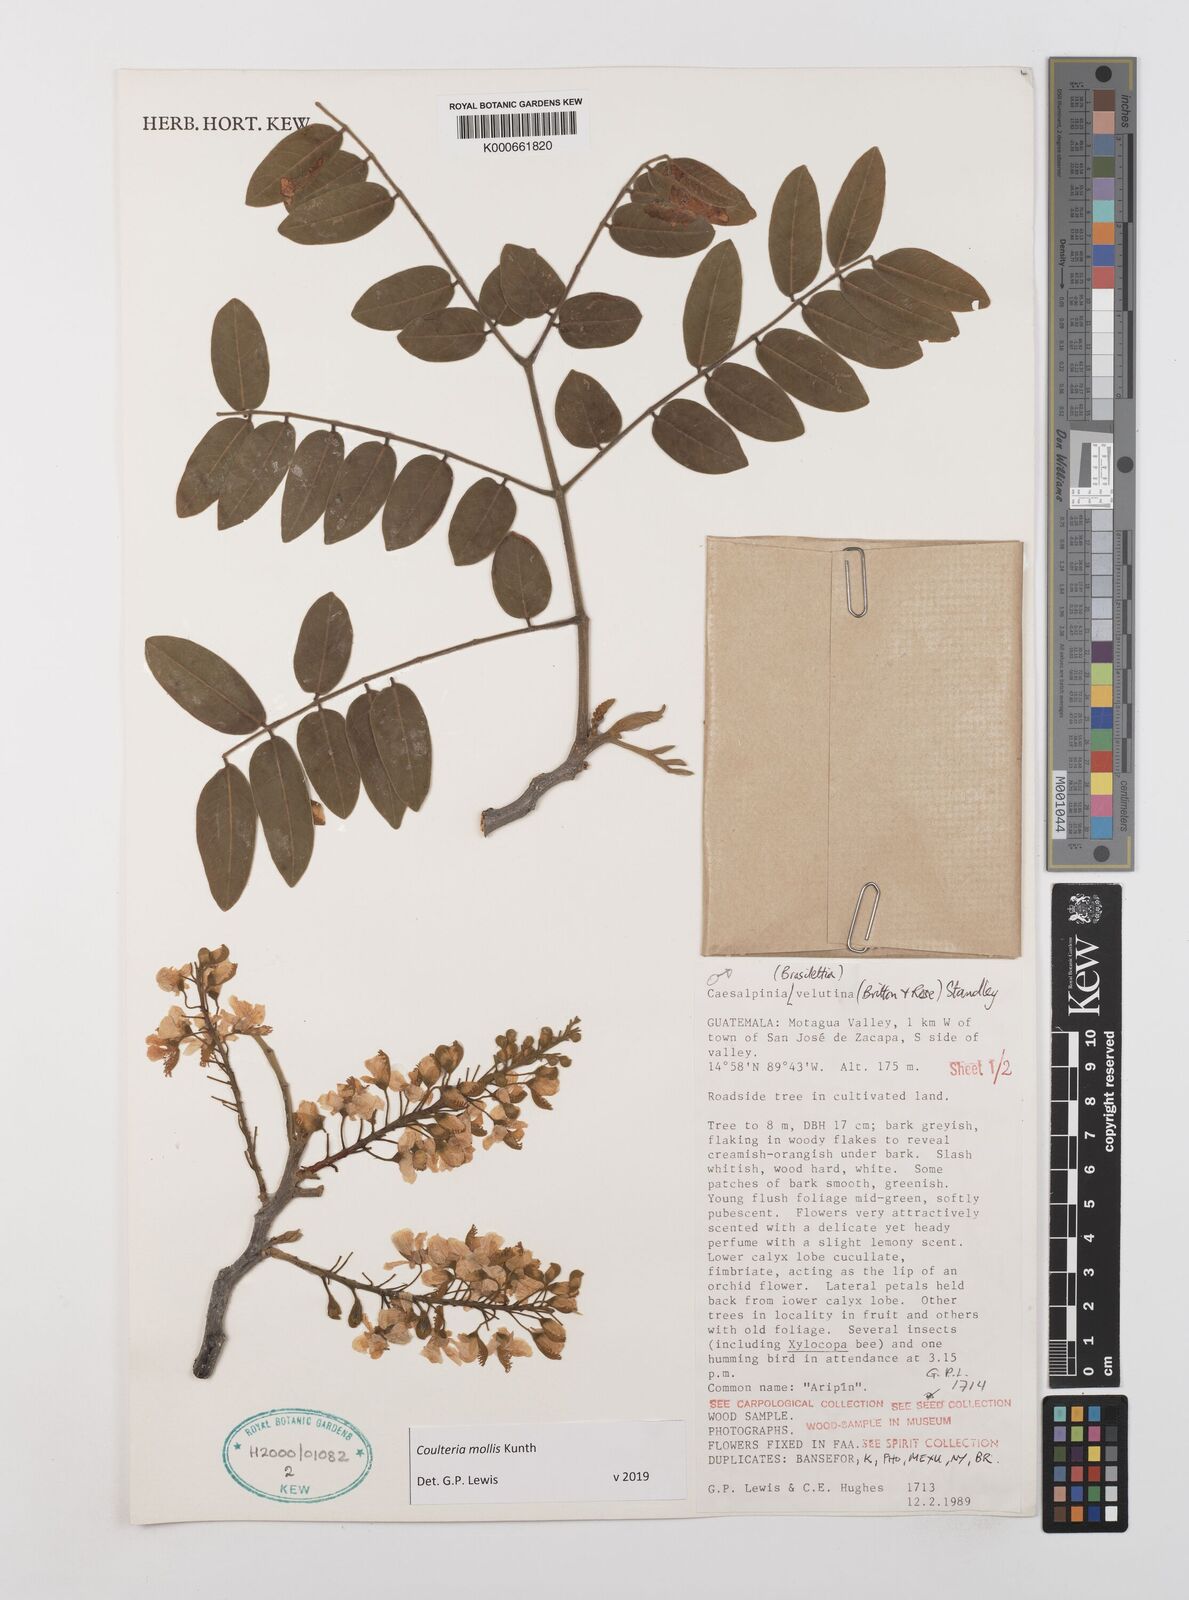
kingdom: Plantae
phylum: Tracheophyta
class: Magnoliopsida
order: Fabales
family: Fabaceae
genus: Coulteria
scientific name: Coulteria velutina
